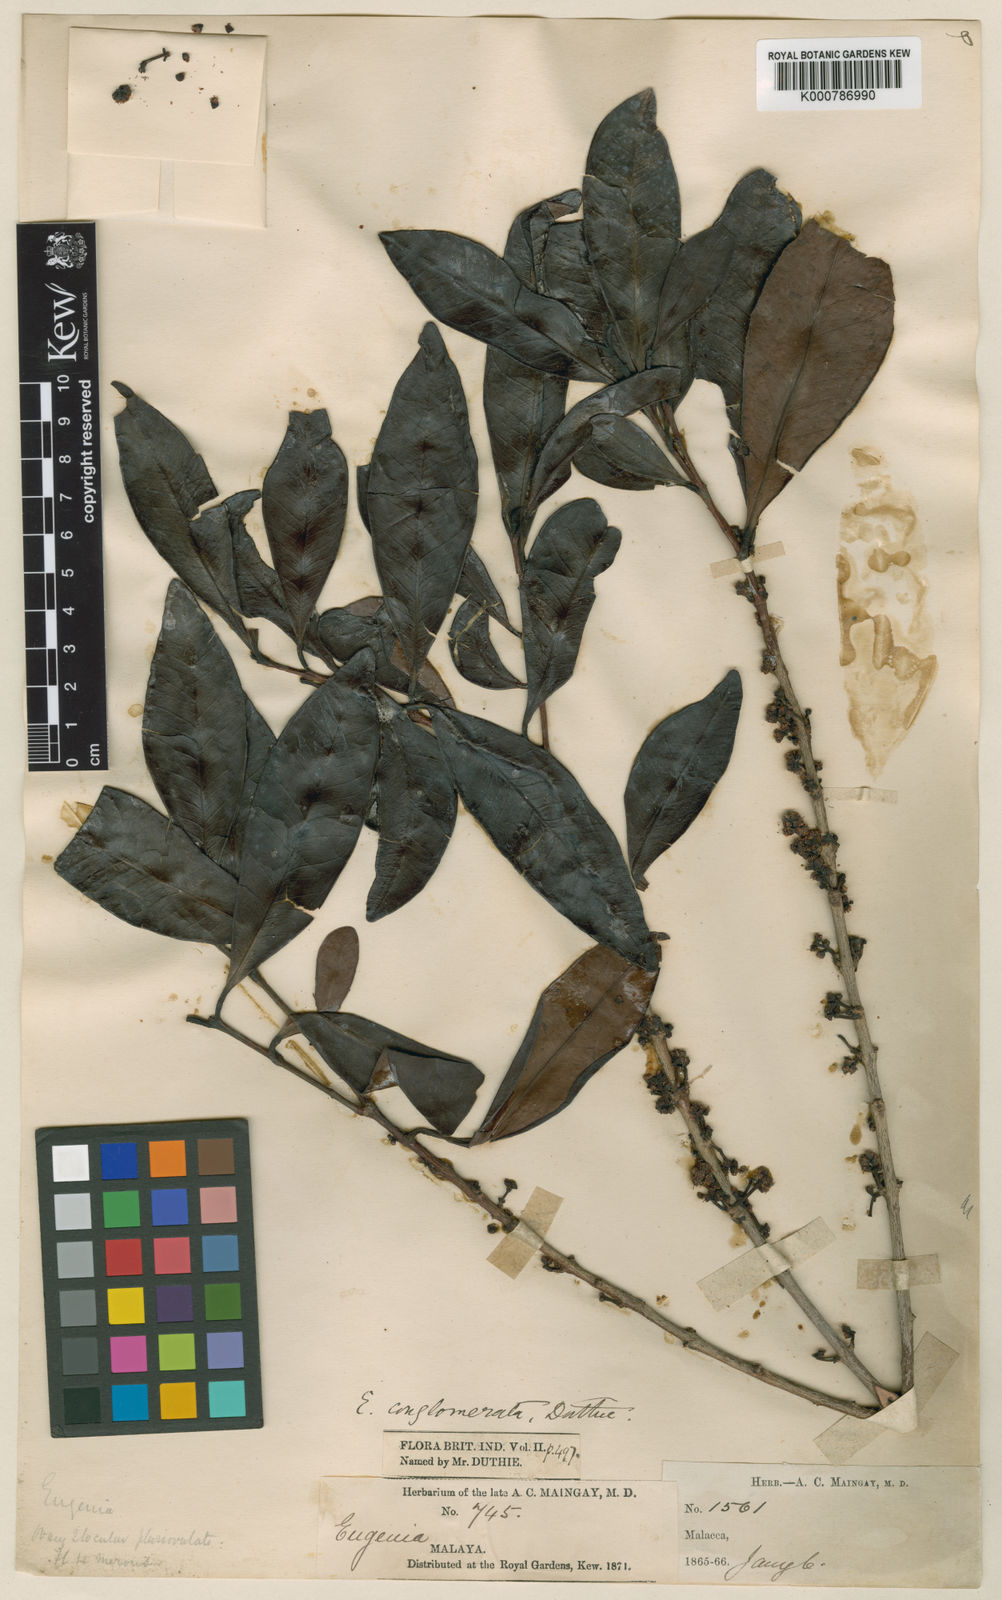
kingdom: Plantae
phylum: Tracheophyta
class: Magnoliopsida
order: Myrtales
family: Myrtaceae
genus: Syzygium
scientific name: Syzygium conglomeratum
